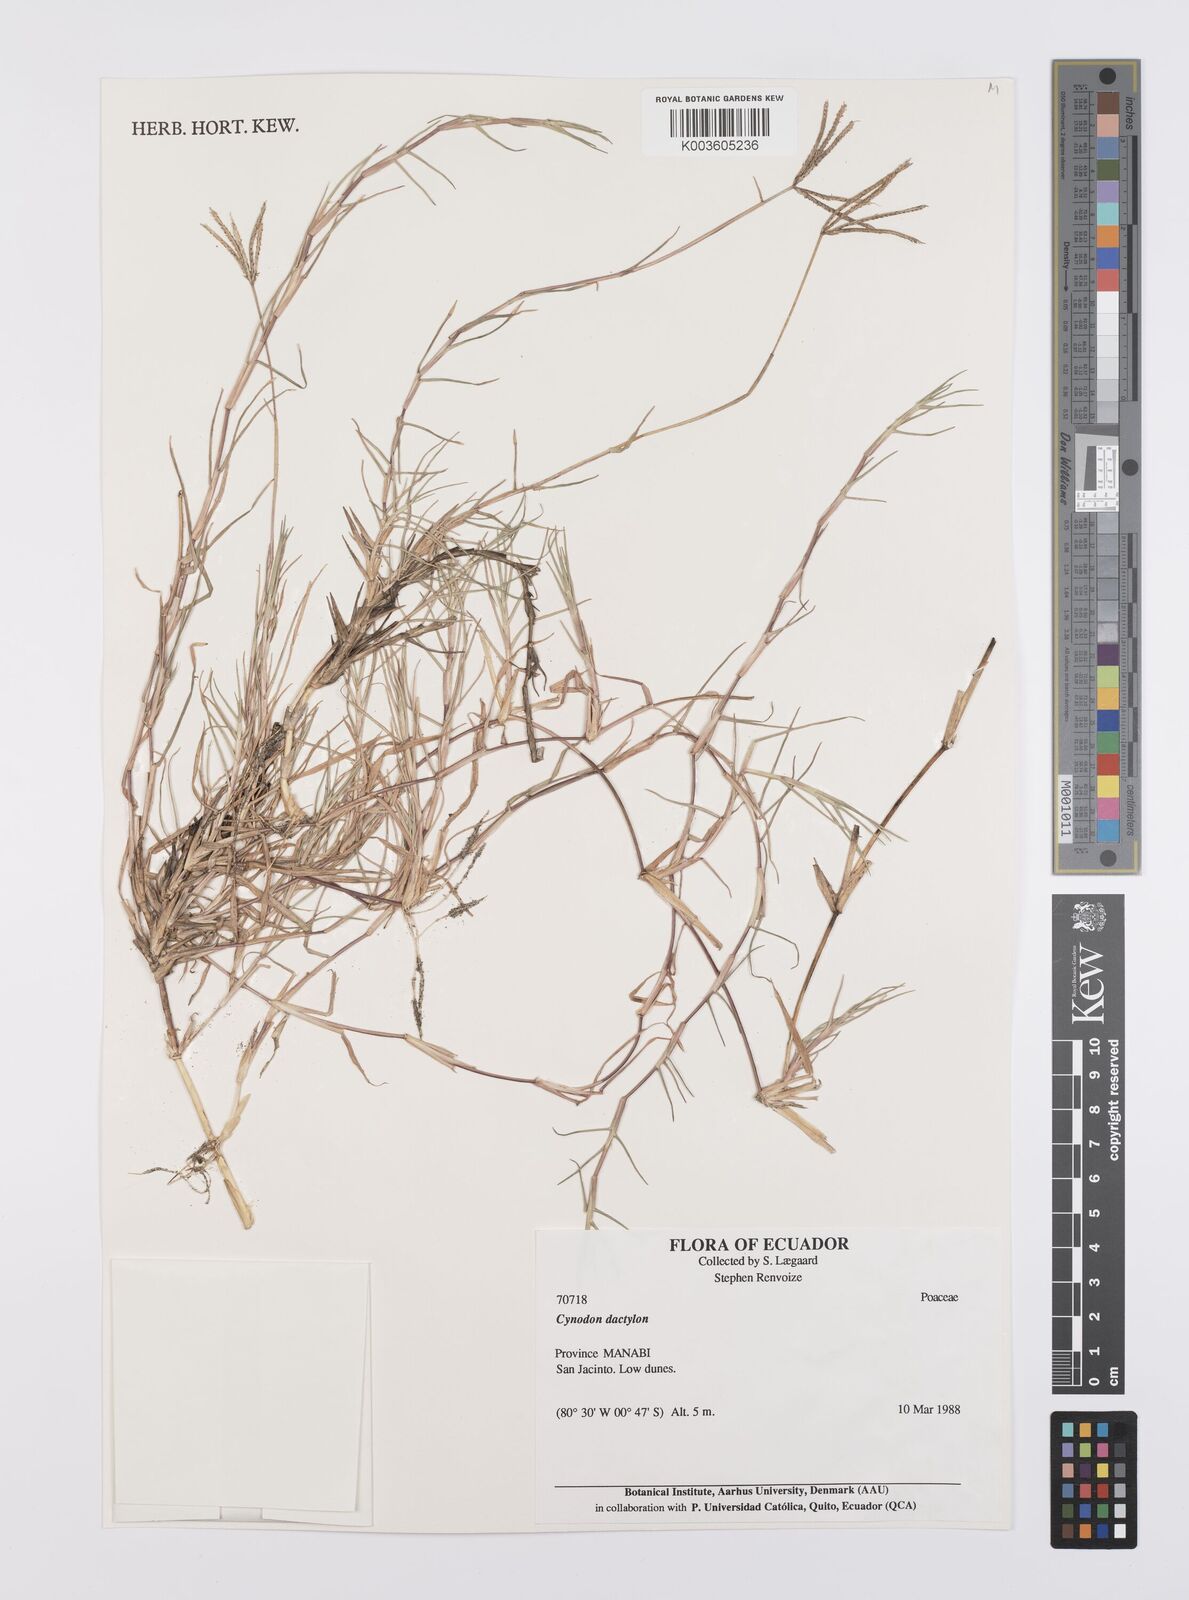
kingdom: Plantae
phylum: Tracheophyta
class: Liliopsida
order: Poales
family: Poaceae
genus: Cynodon
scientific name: Cynodon dactylon
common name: Bermuda grass
